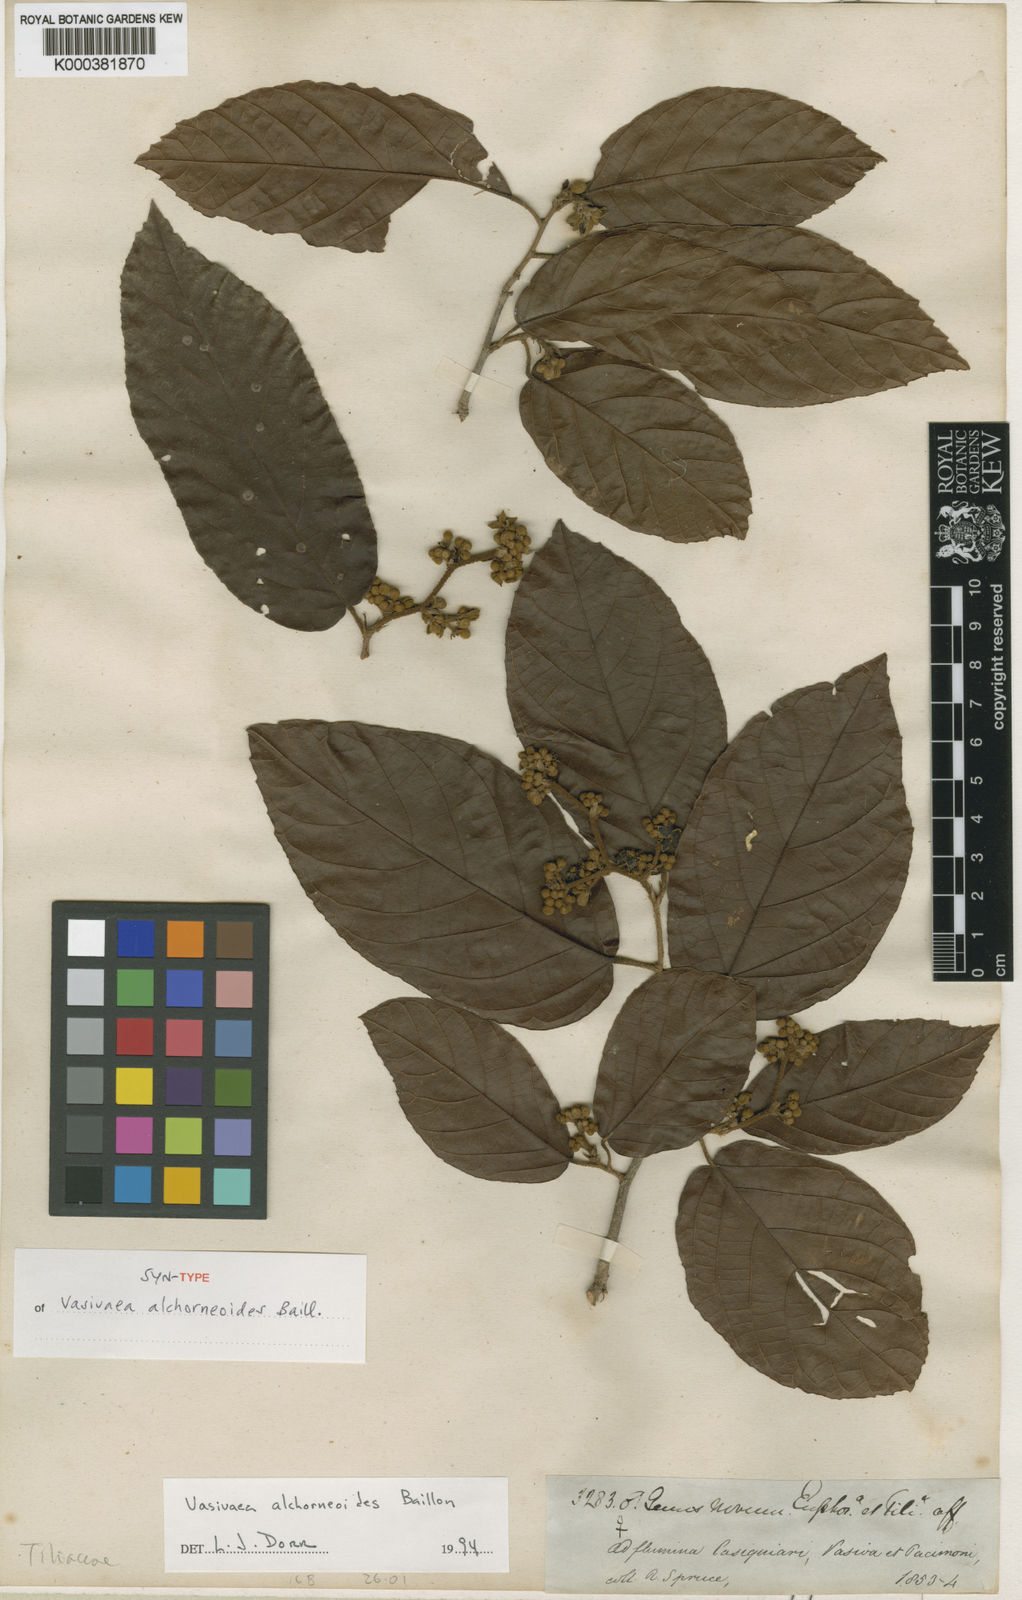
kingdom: Plantae
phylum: Tracheophyta
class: Magnoliopsida
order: Malvales
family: Malvaceae
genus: Vasivaea
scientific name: Vasivaea alchorneoides
